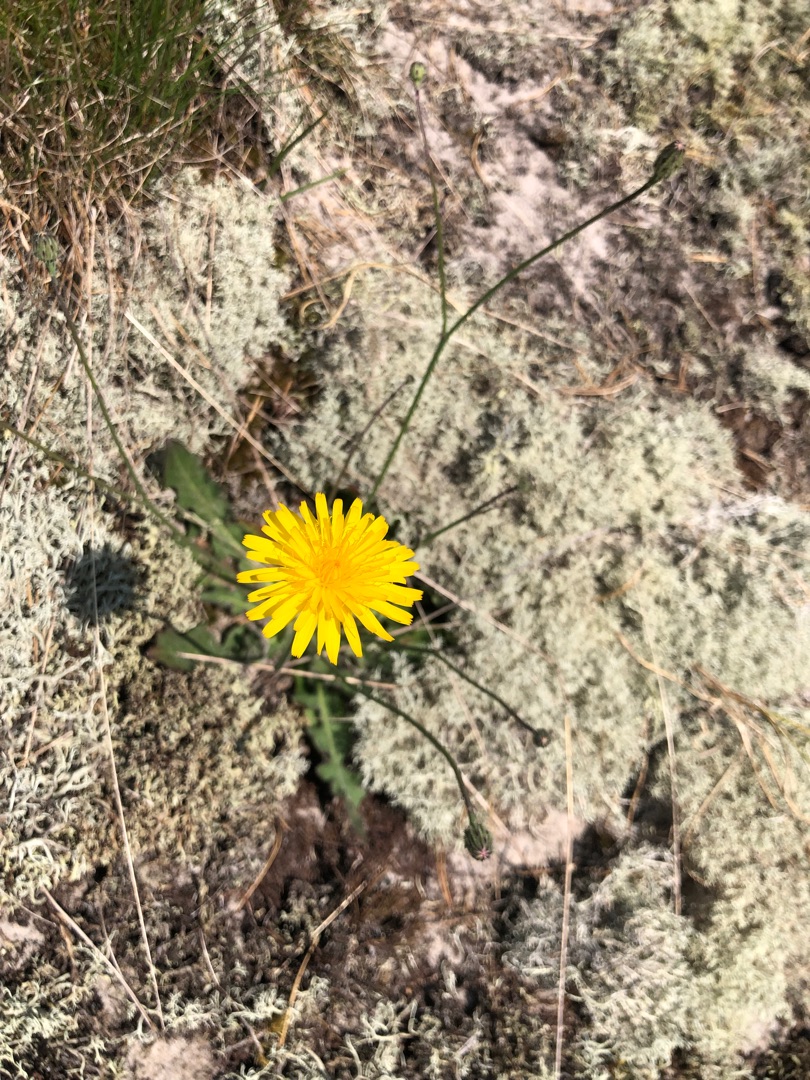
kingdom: Plantae
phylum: Tracheophyta
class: Magnoliopsida
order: Asterales
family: Asteraceae
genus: Hypochaeris
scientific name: Hypochaeris radicata
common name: Almindelig kongepen
